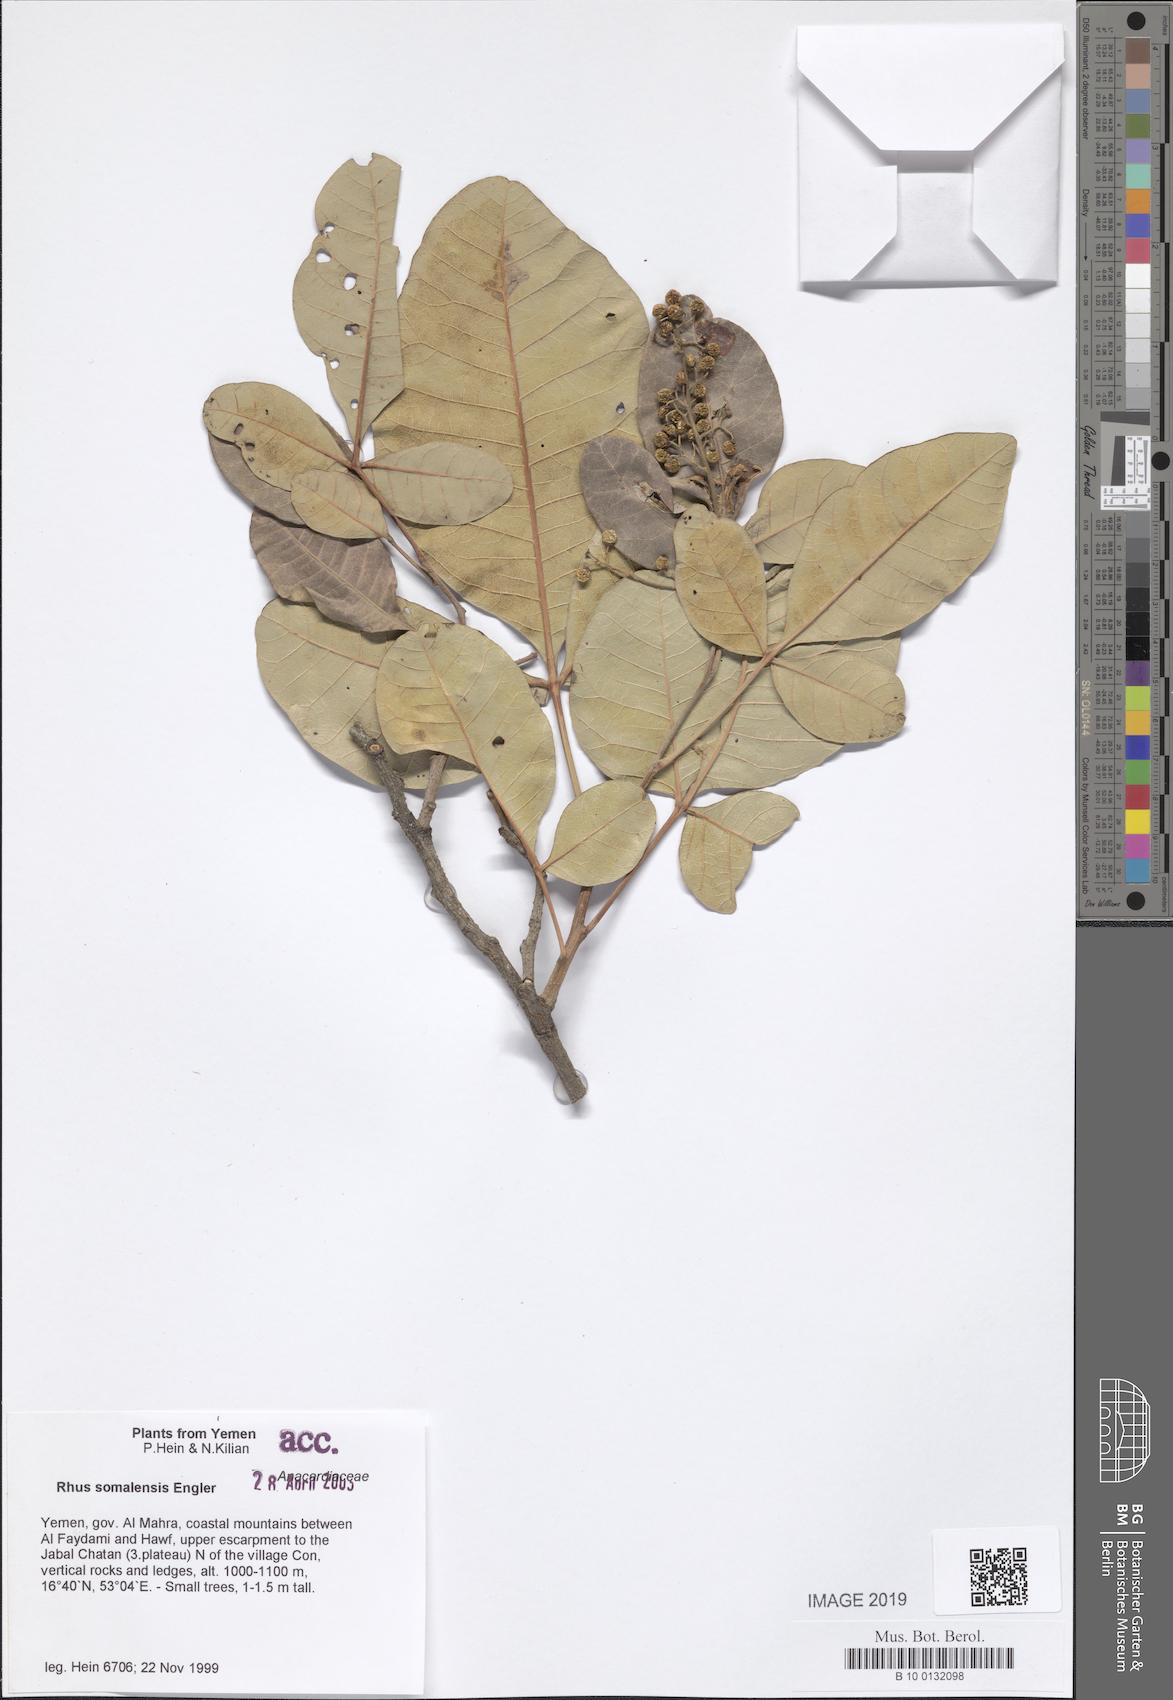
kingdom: Plantae
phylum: Tracheophyta
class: Magnoliopsida
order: Sapindales
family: Anacardiaceae
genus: Searsia
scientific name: Searsia somalensis
